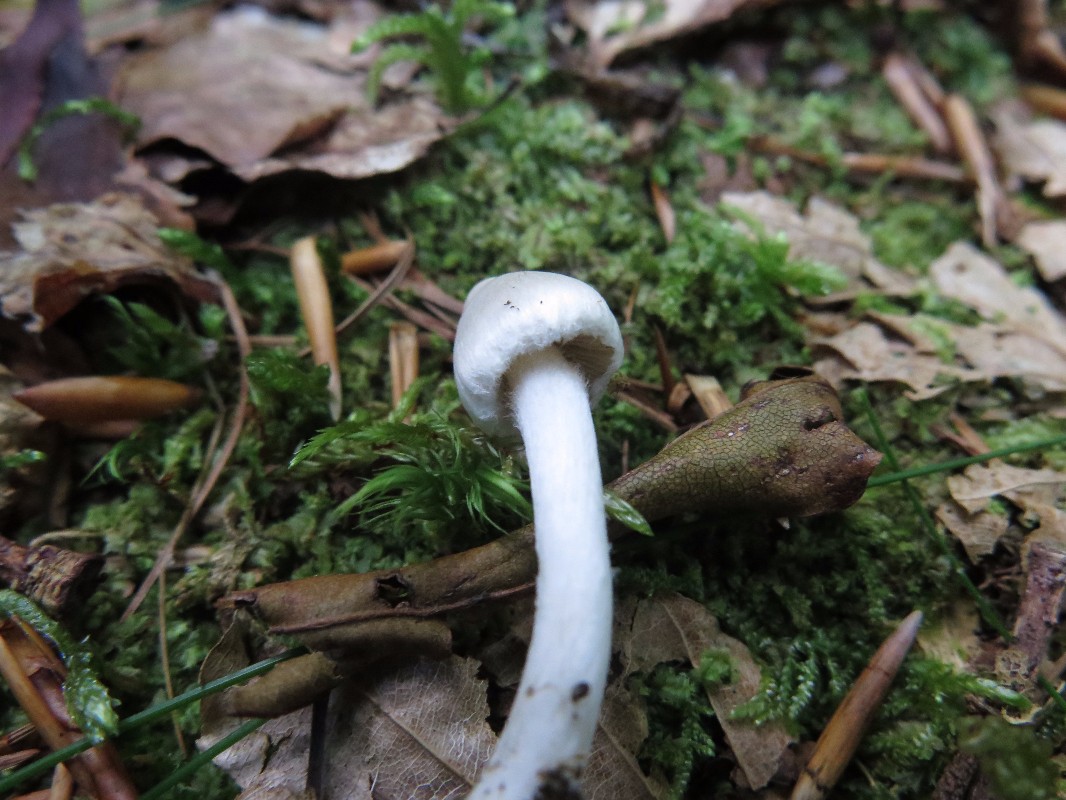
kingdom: Fungi
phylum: Basidiomycota
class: Agaricomycetes
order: Agaricales
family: Inocybaceae
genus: Inocybe
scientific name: Inocybe
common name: almindelig trævlhat
